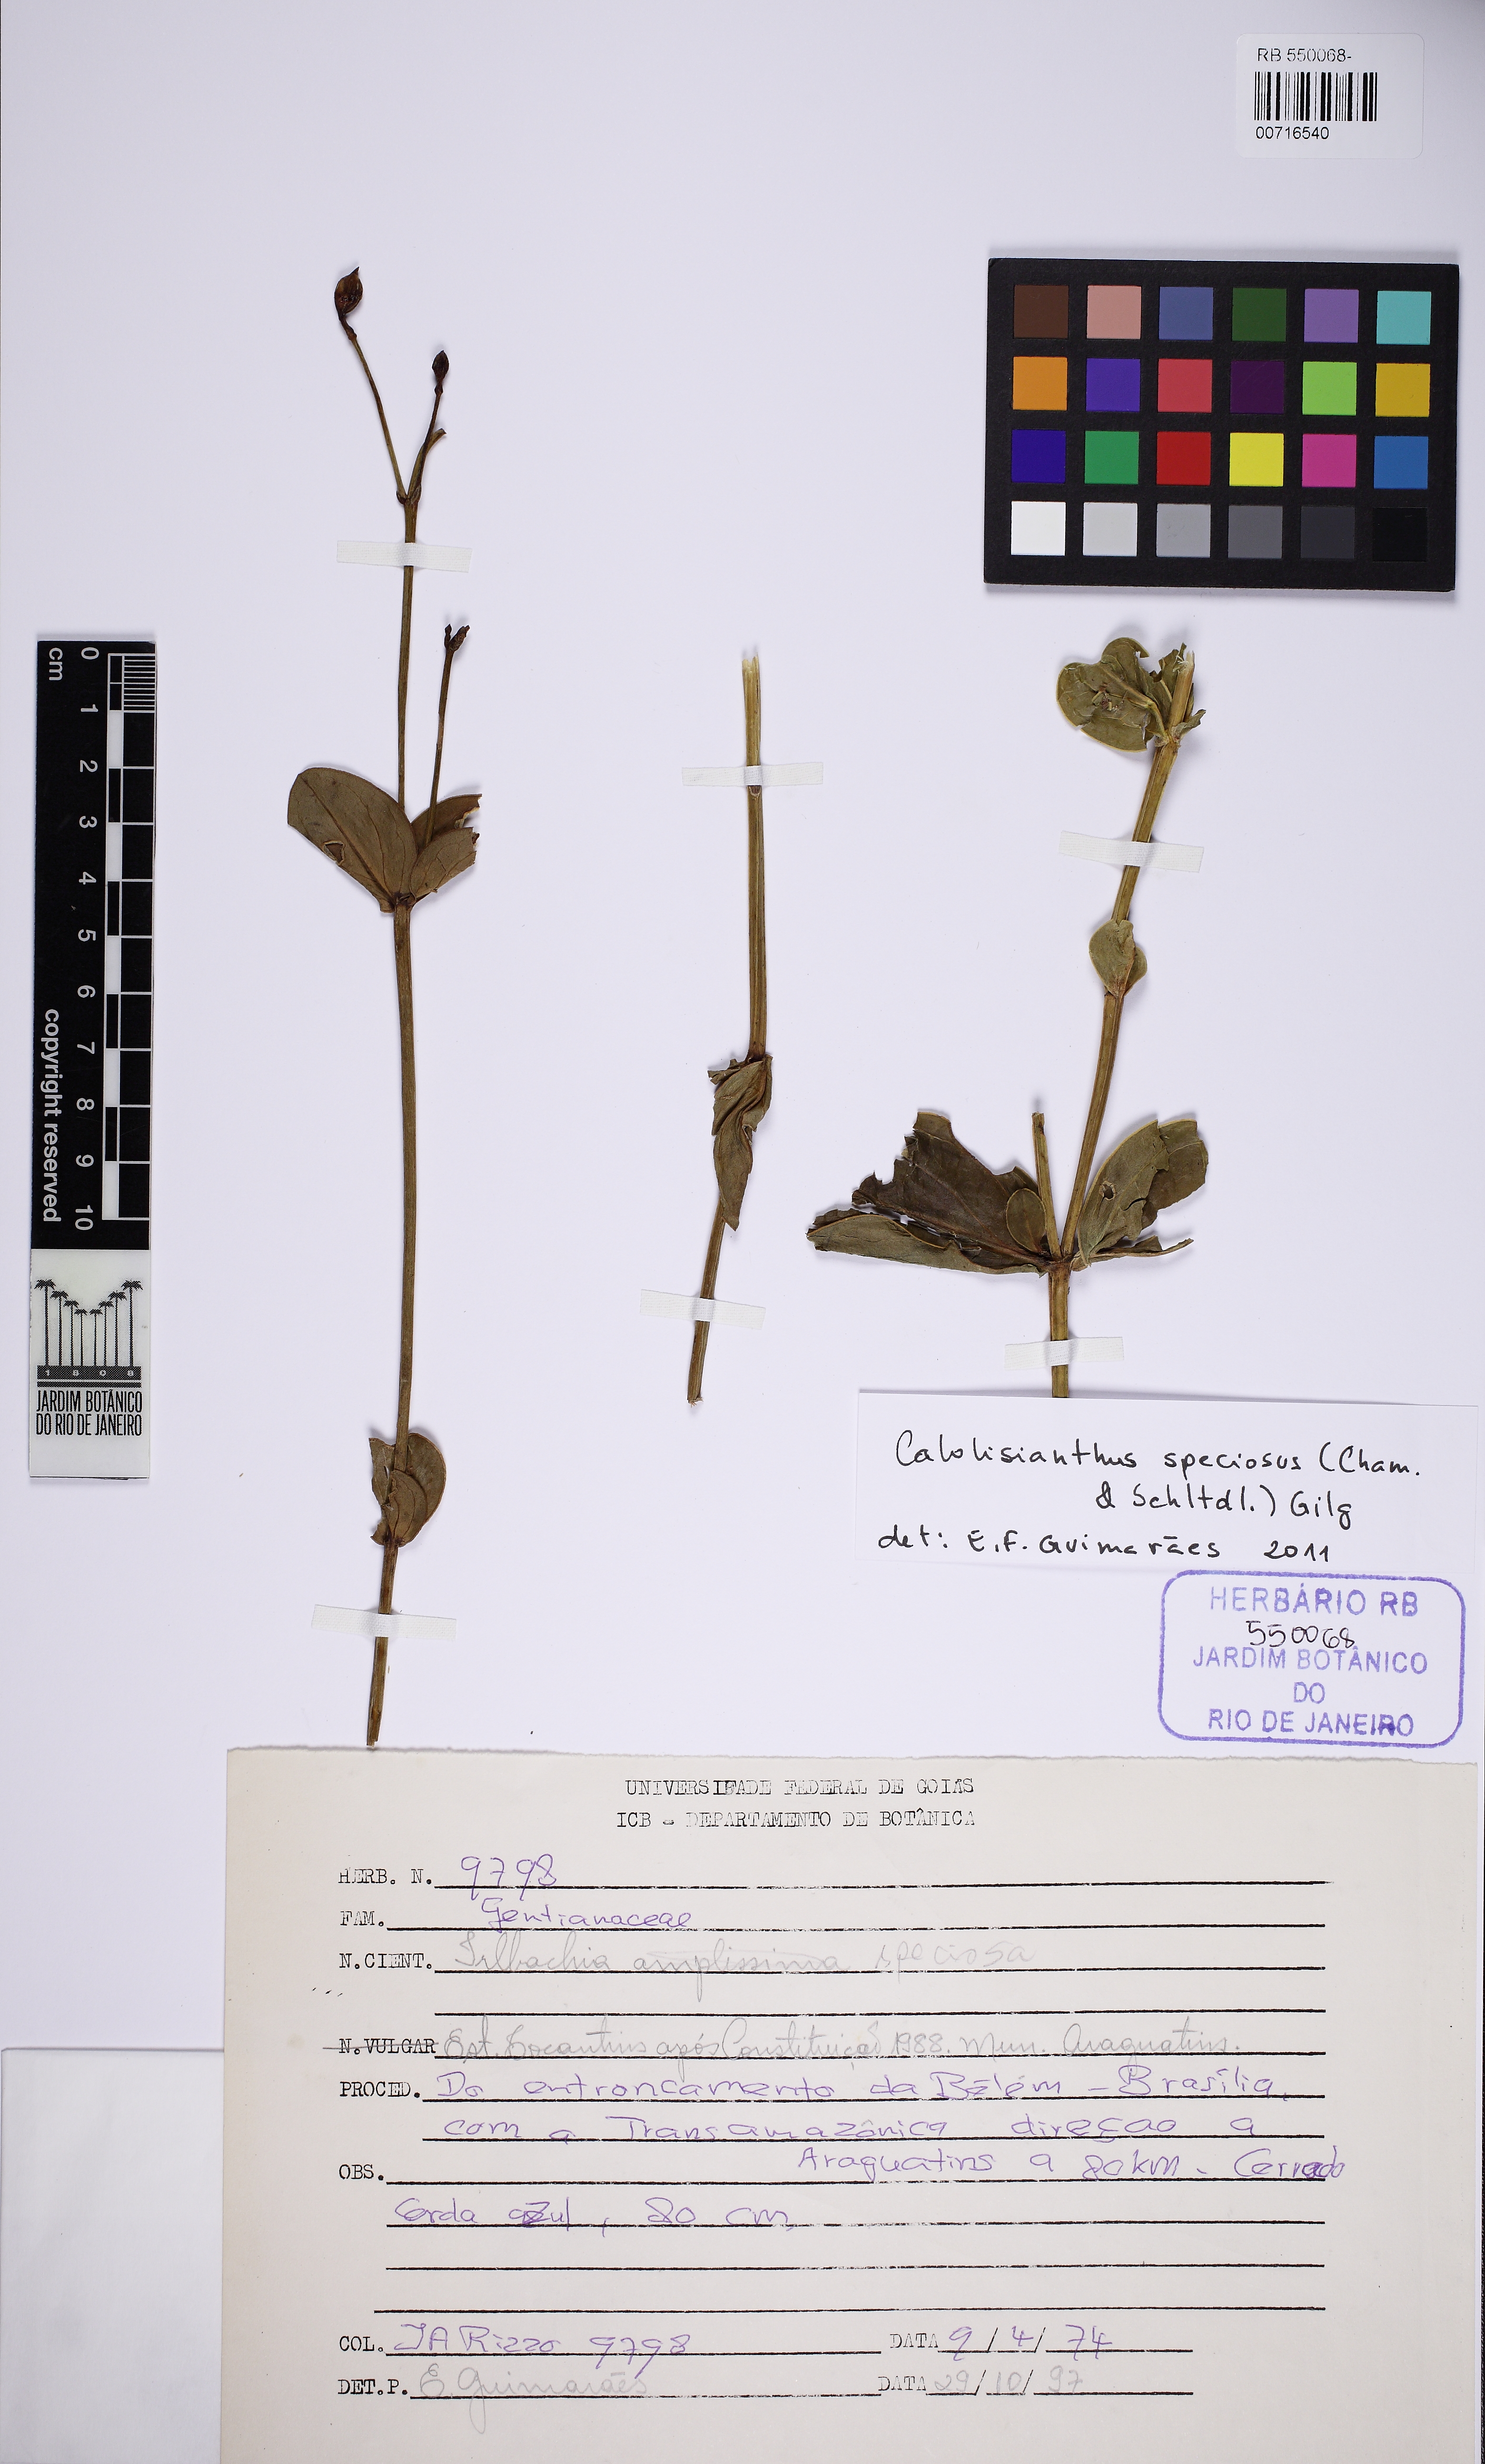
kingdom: Plantae
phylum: Tracheophyta
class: Magnoliopsida
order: Gentianales
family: Gentianaceae
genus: Calolisianthus
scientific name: Calolisianthus speciosus
